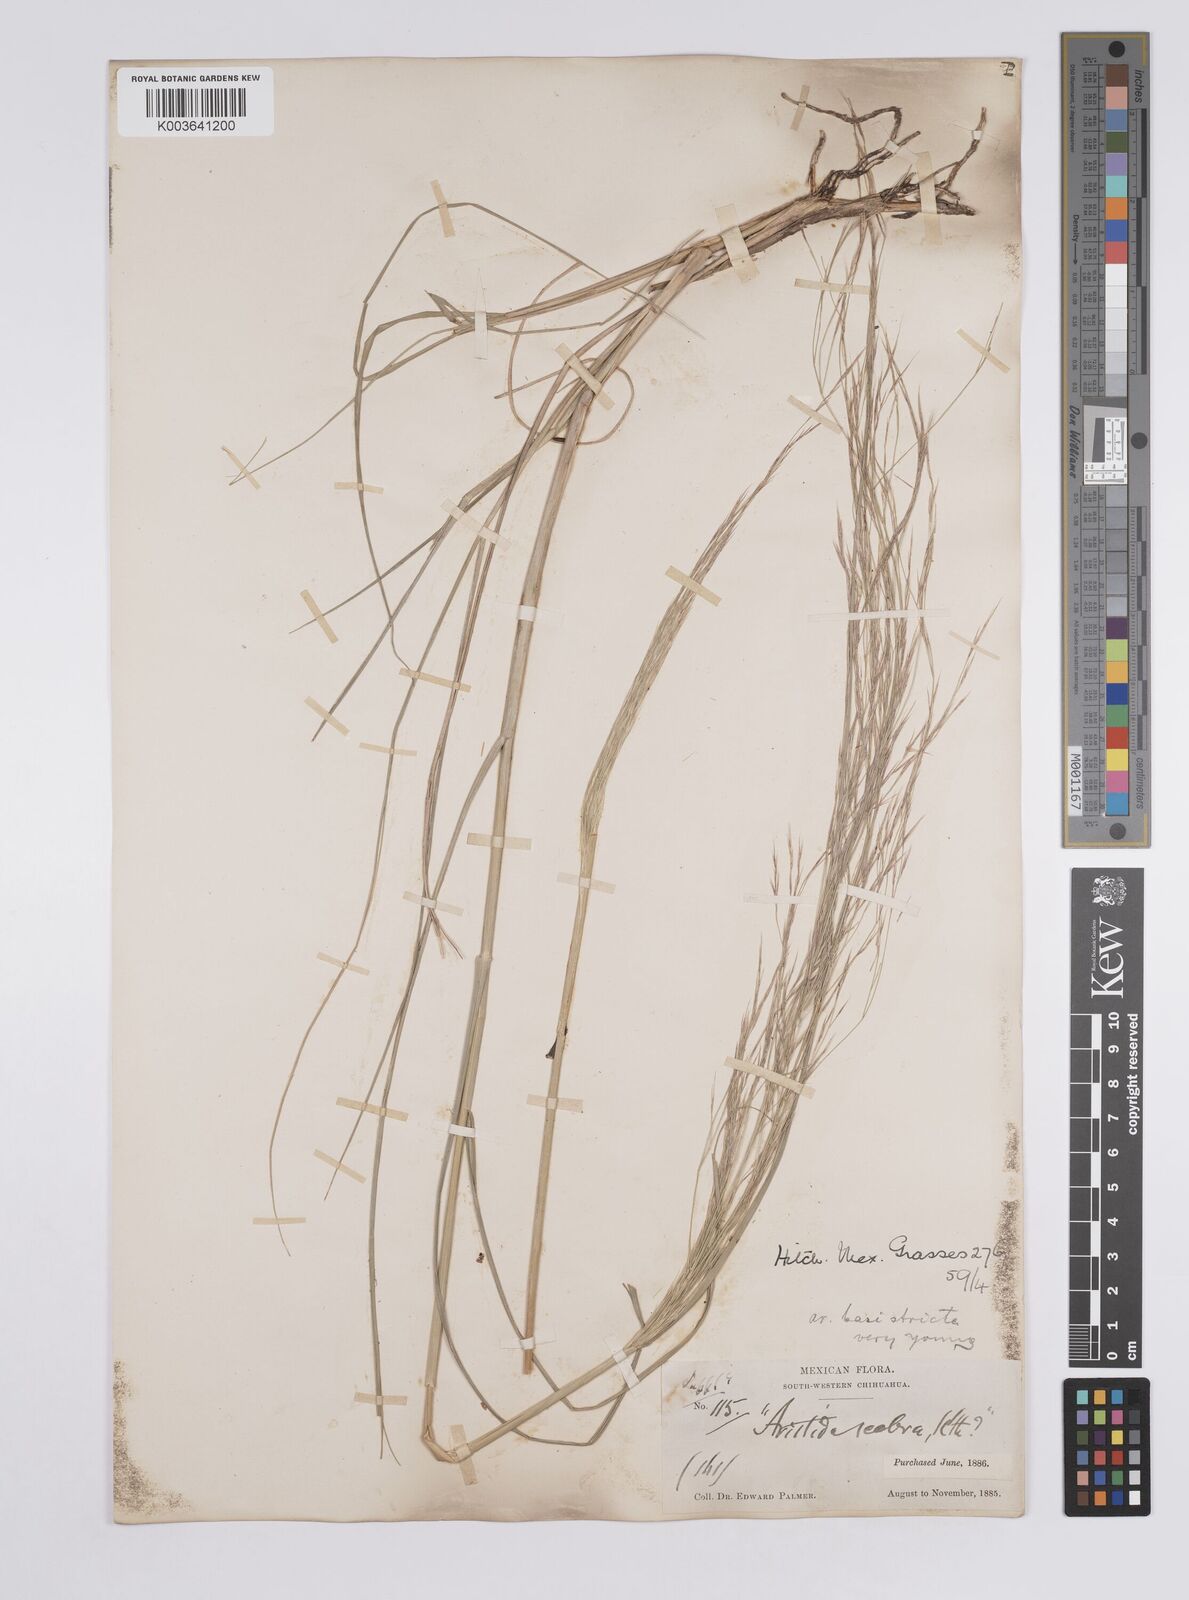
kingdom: Plantae
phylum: Tracheophyta
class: Liliopsida
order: Poales
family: Poaceae
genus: Aristida
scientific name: Aristida ternipes
